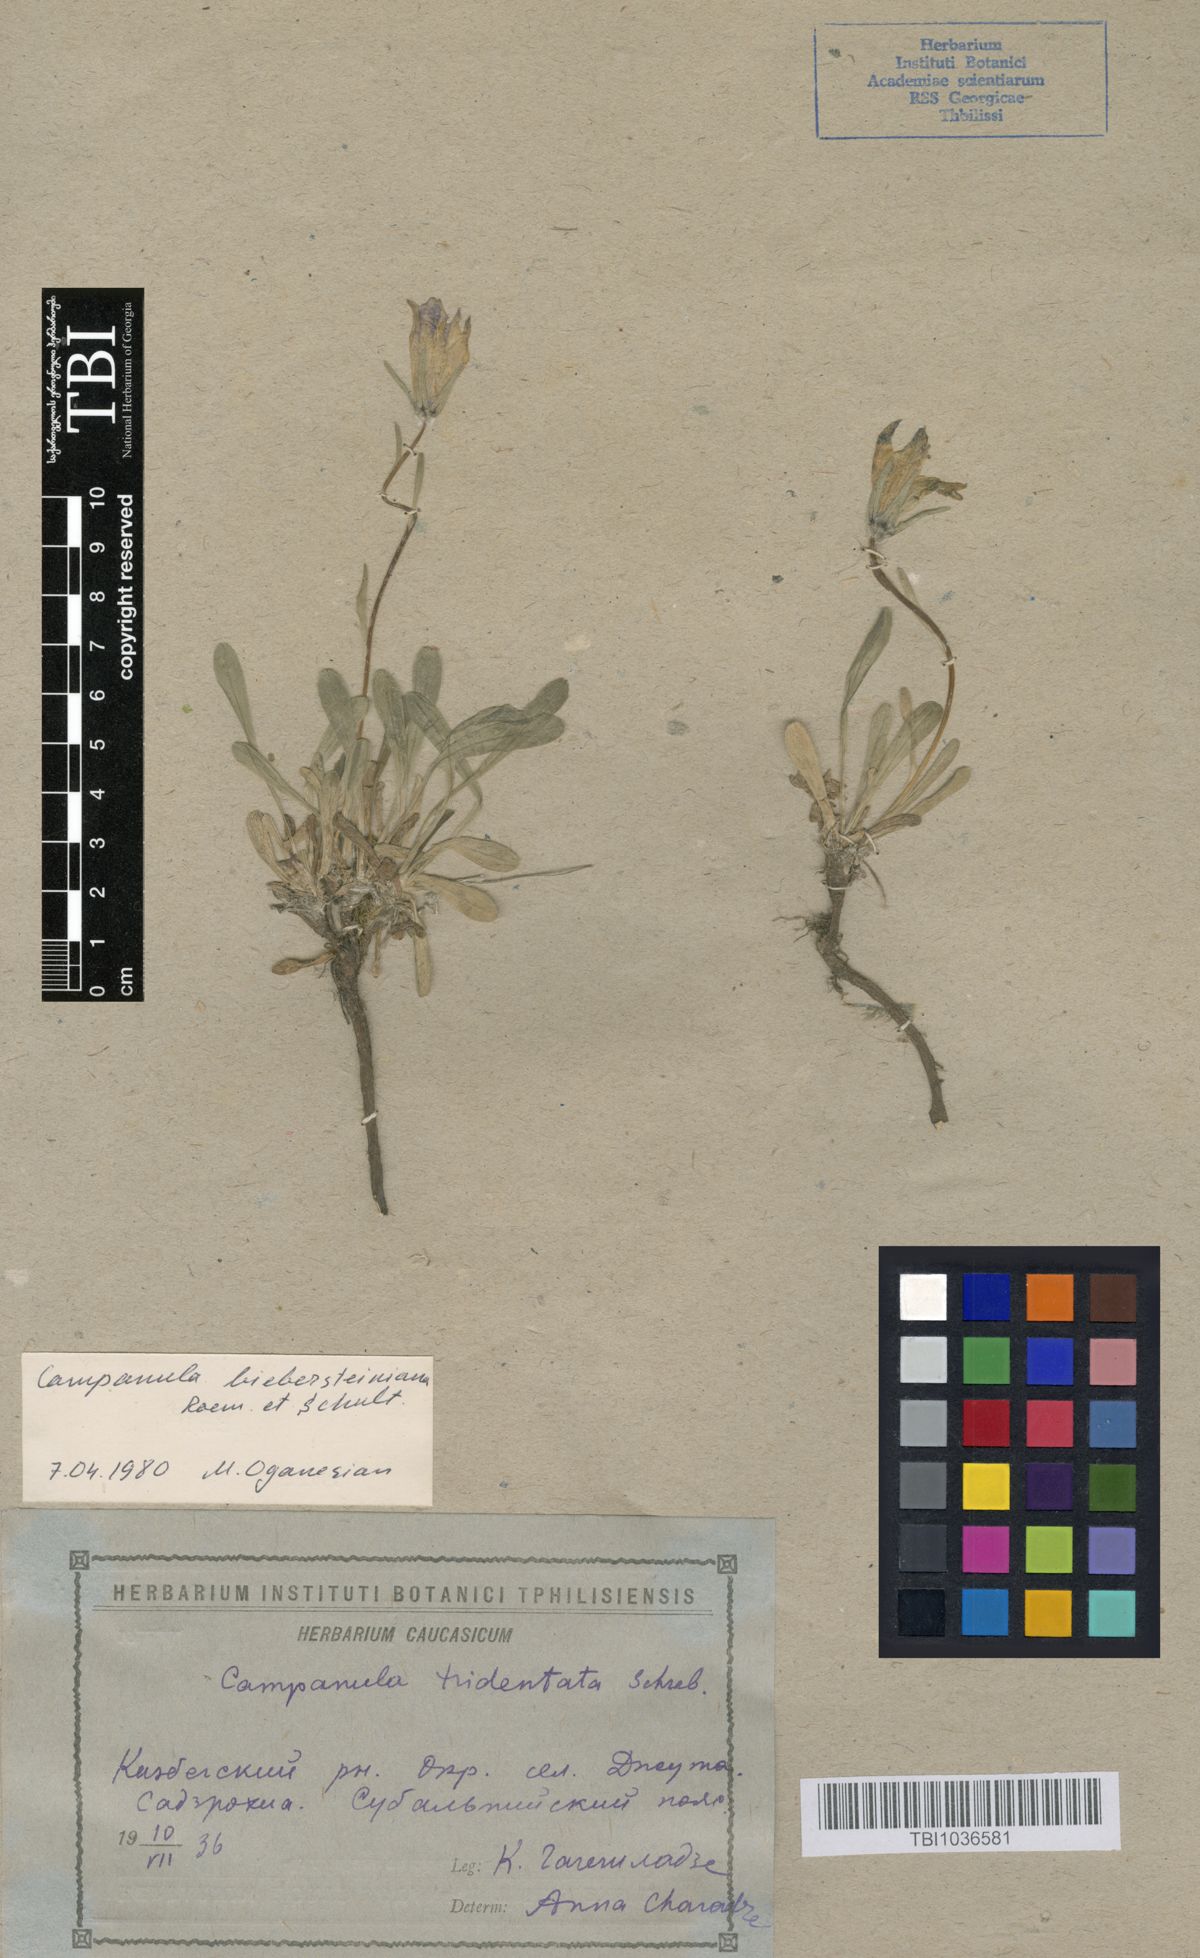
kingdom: Plantae
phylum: Tracheophyta
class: Magnoliopsida
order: Asterales
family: Campanulaceae
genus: Campanula
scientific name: Campanula tridentata
